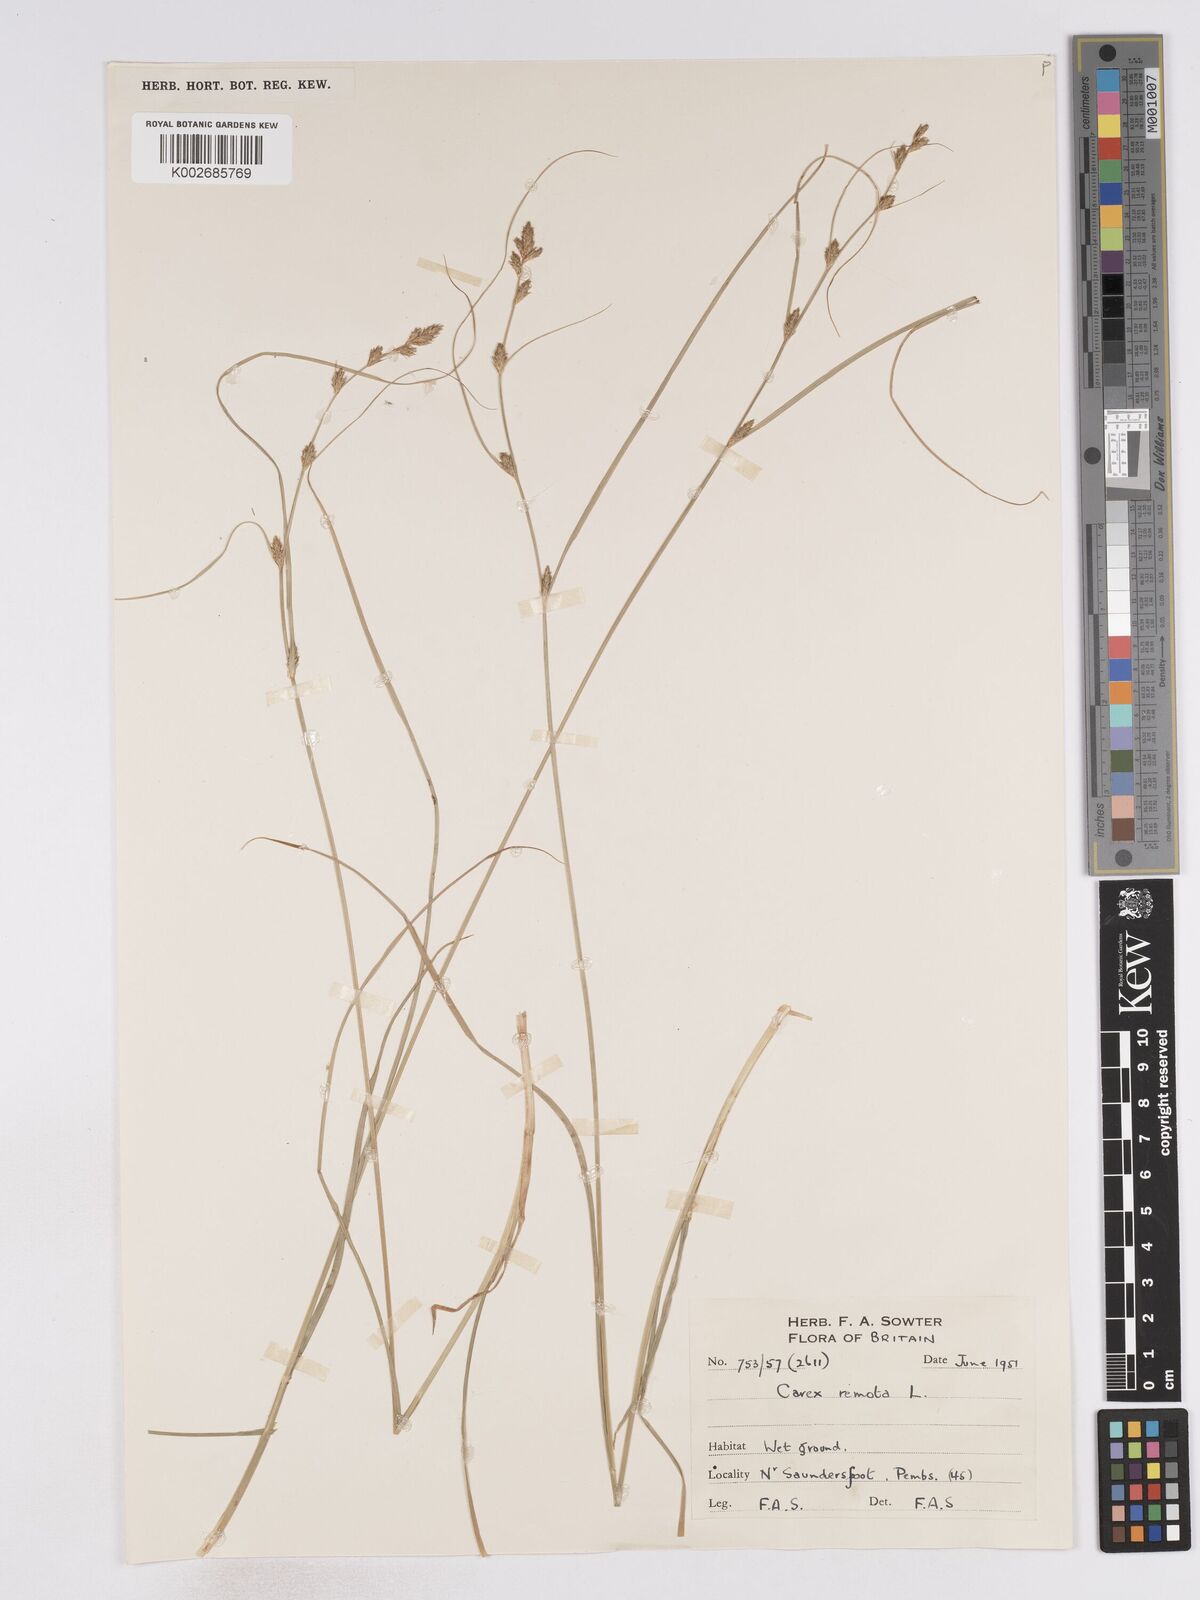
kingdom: Plantae
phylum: Tracheophyta
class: Liliopsida
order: Poales
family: Cyperaceae
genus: Carex
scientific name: Carex remota
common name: Remote sedge
